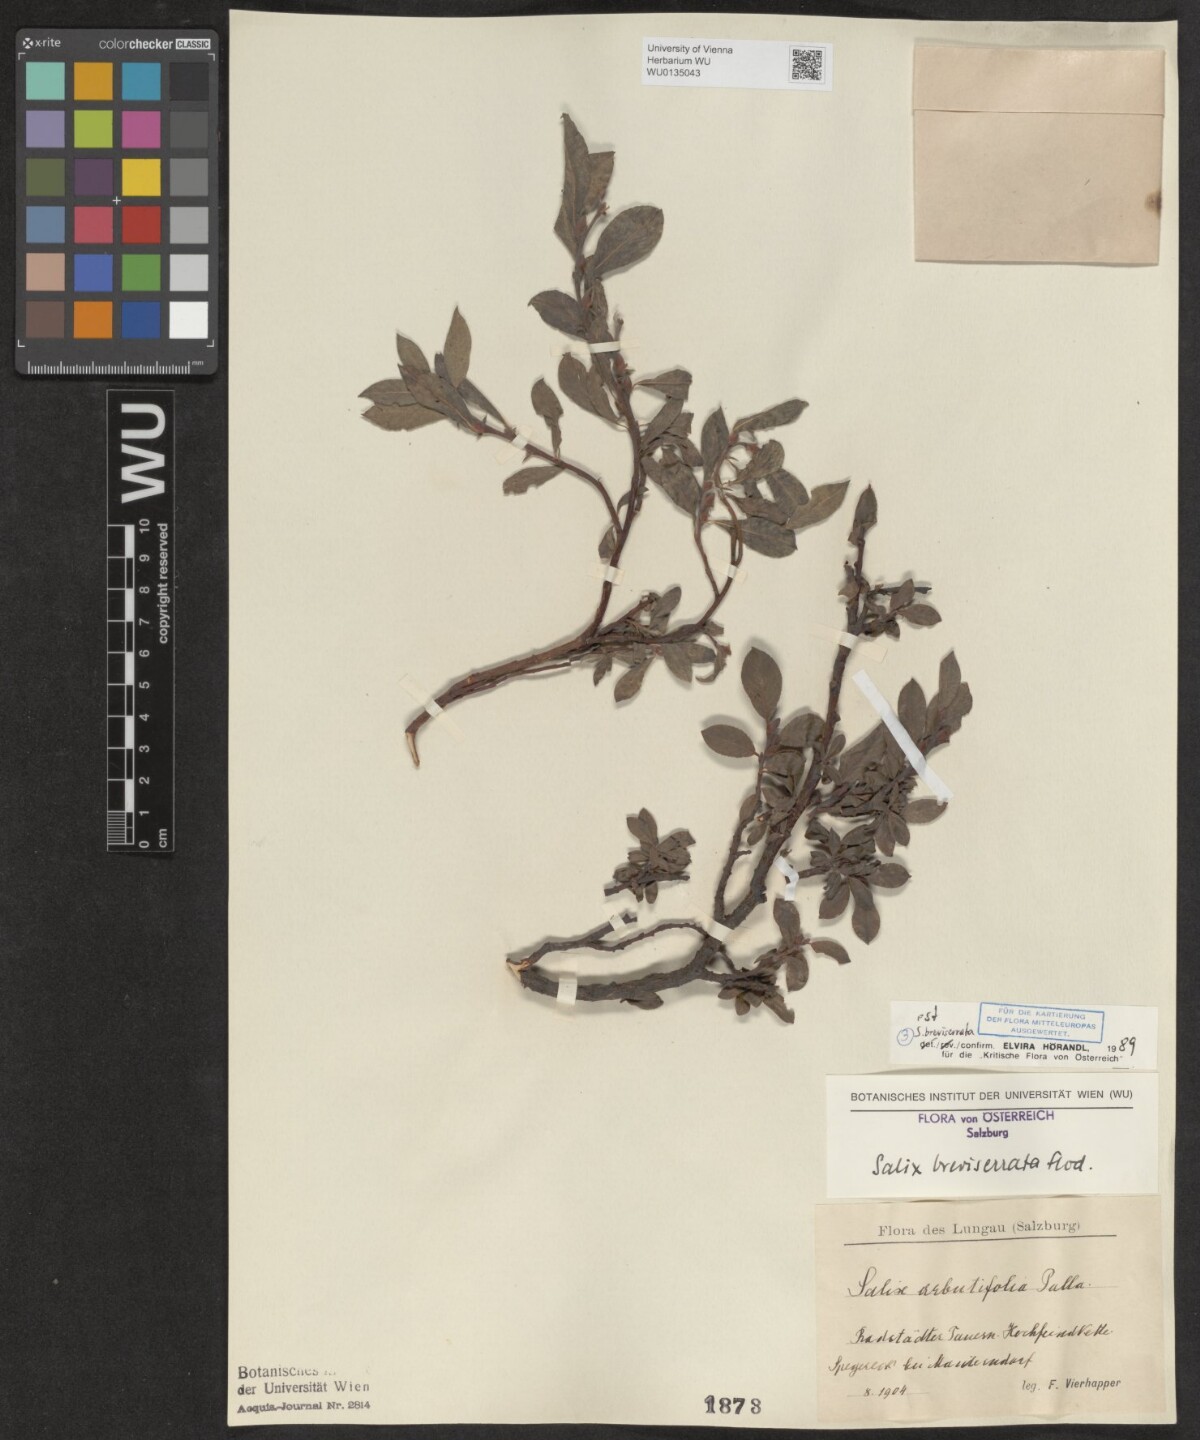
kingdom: Plantae
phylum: Tracheophyta
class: Magnoliopsida
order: Malpighiales
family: Salicaceae
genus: Salix
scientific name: Salix breviserrata
